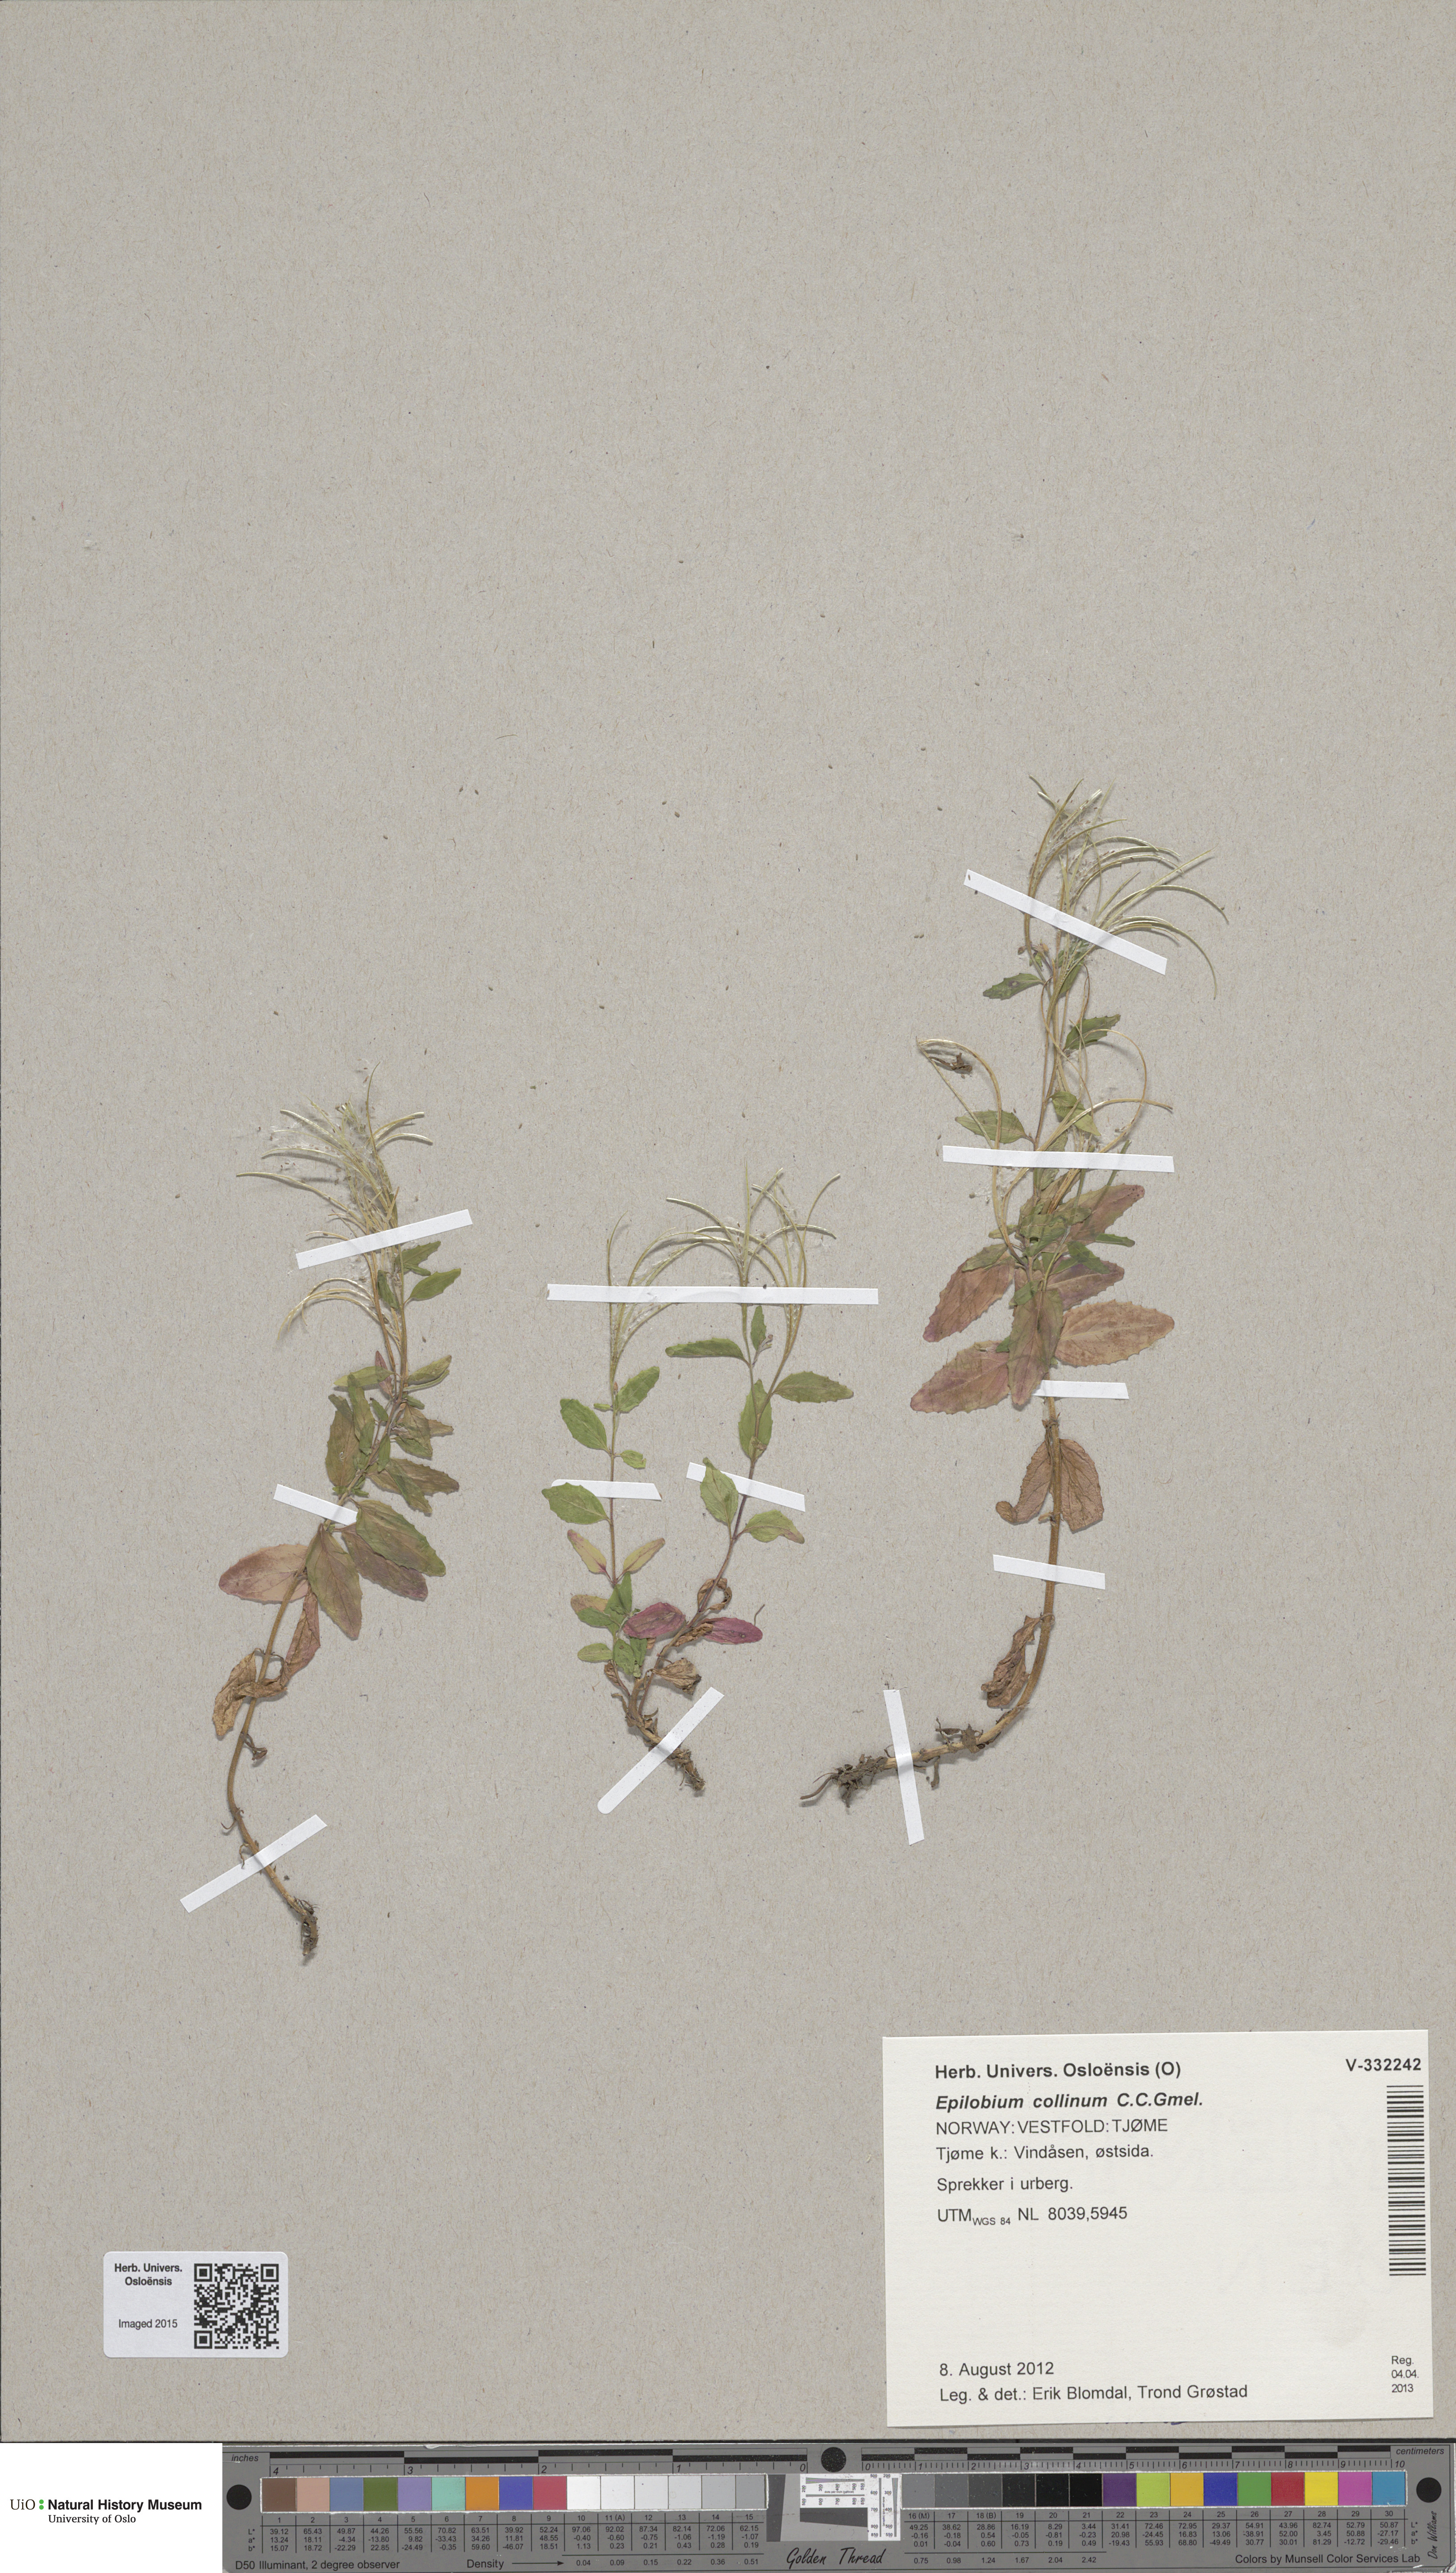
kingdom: Plantae
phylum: Tracheophyta
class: Magnoliopsida
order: Myrtales
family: Onagraceae
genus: Epilobium
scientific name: Epilobium collinum
